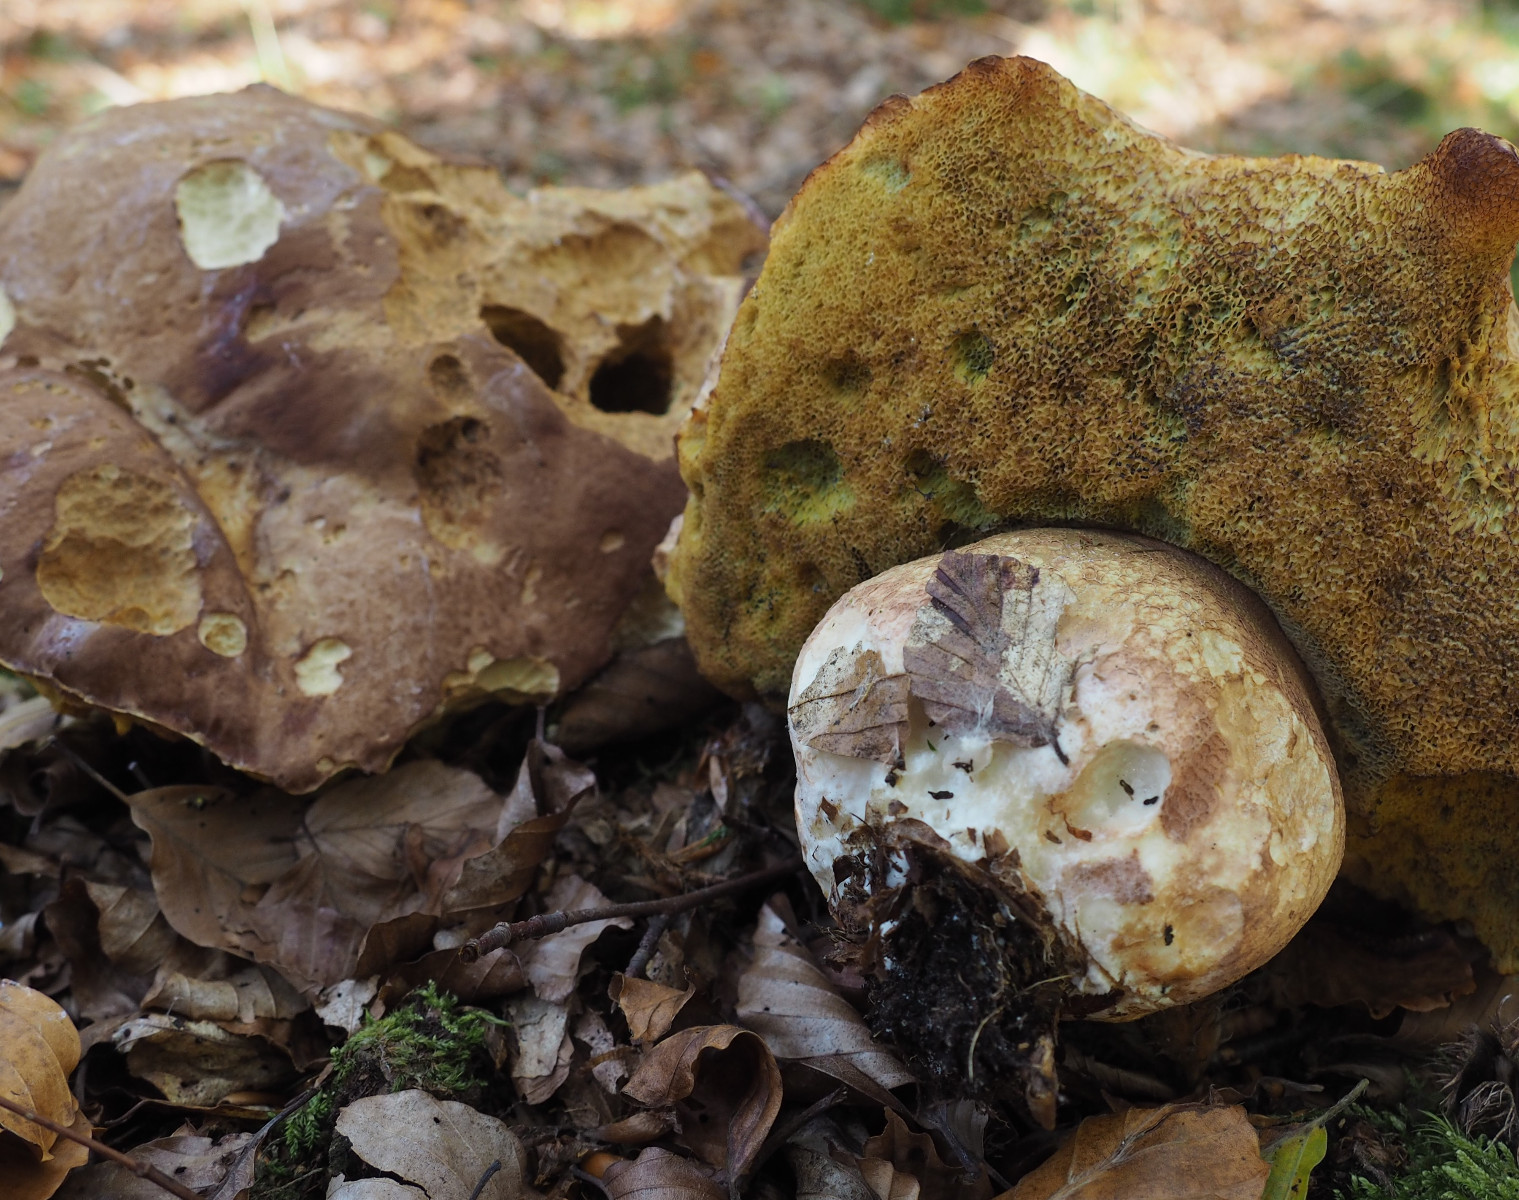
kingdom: Fungi
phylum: Basidiomycota
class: Agaricomycetes
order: Boletales
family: Boletaceae
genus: Boletus
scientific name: Boletus pinophilus
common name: rødbrun rørhat
